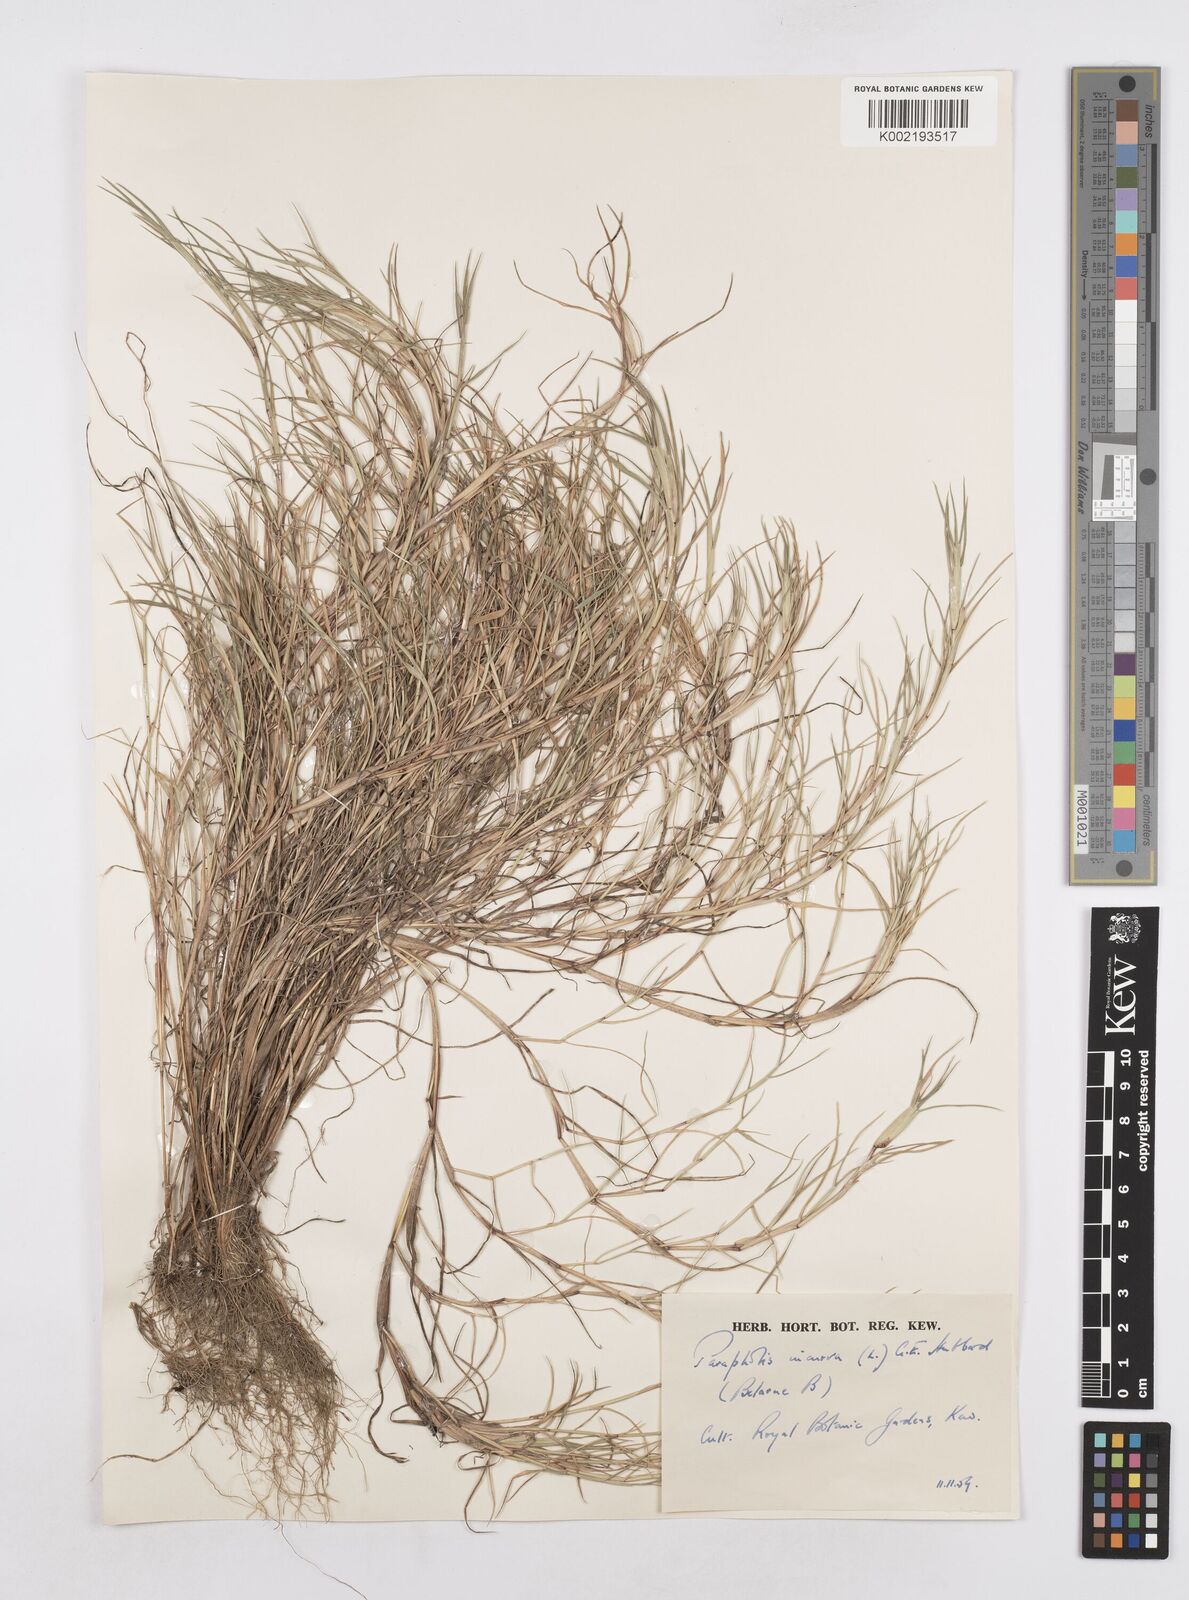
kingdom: Plantae
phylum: Tracheophyta
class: Liliopsida
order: Poales
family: Poaceae
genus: Parapholis
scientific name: Parapholis incurva
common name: Curved sicklegrass
